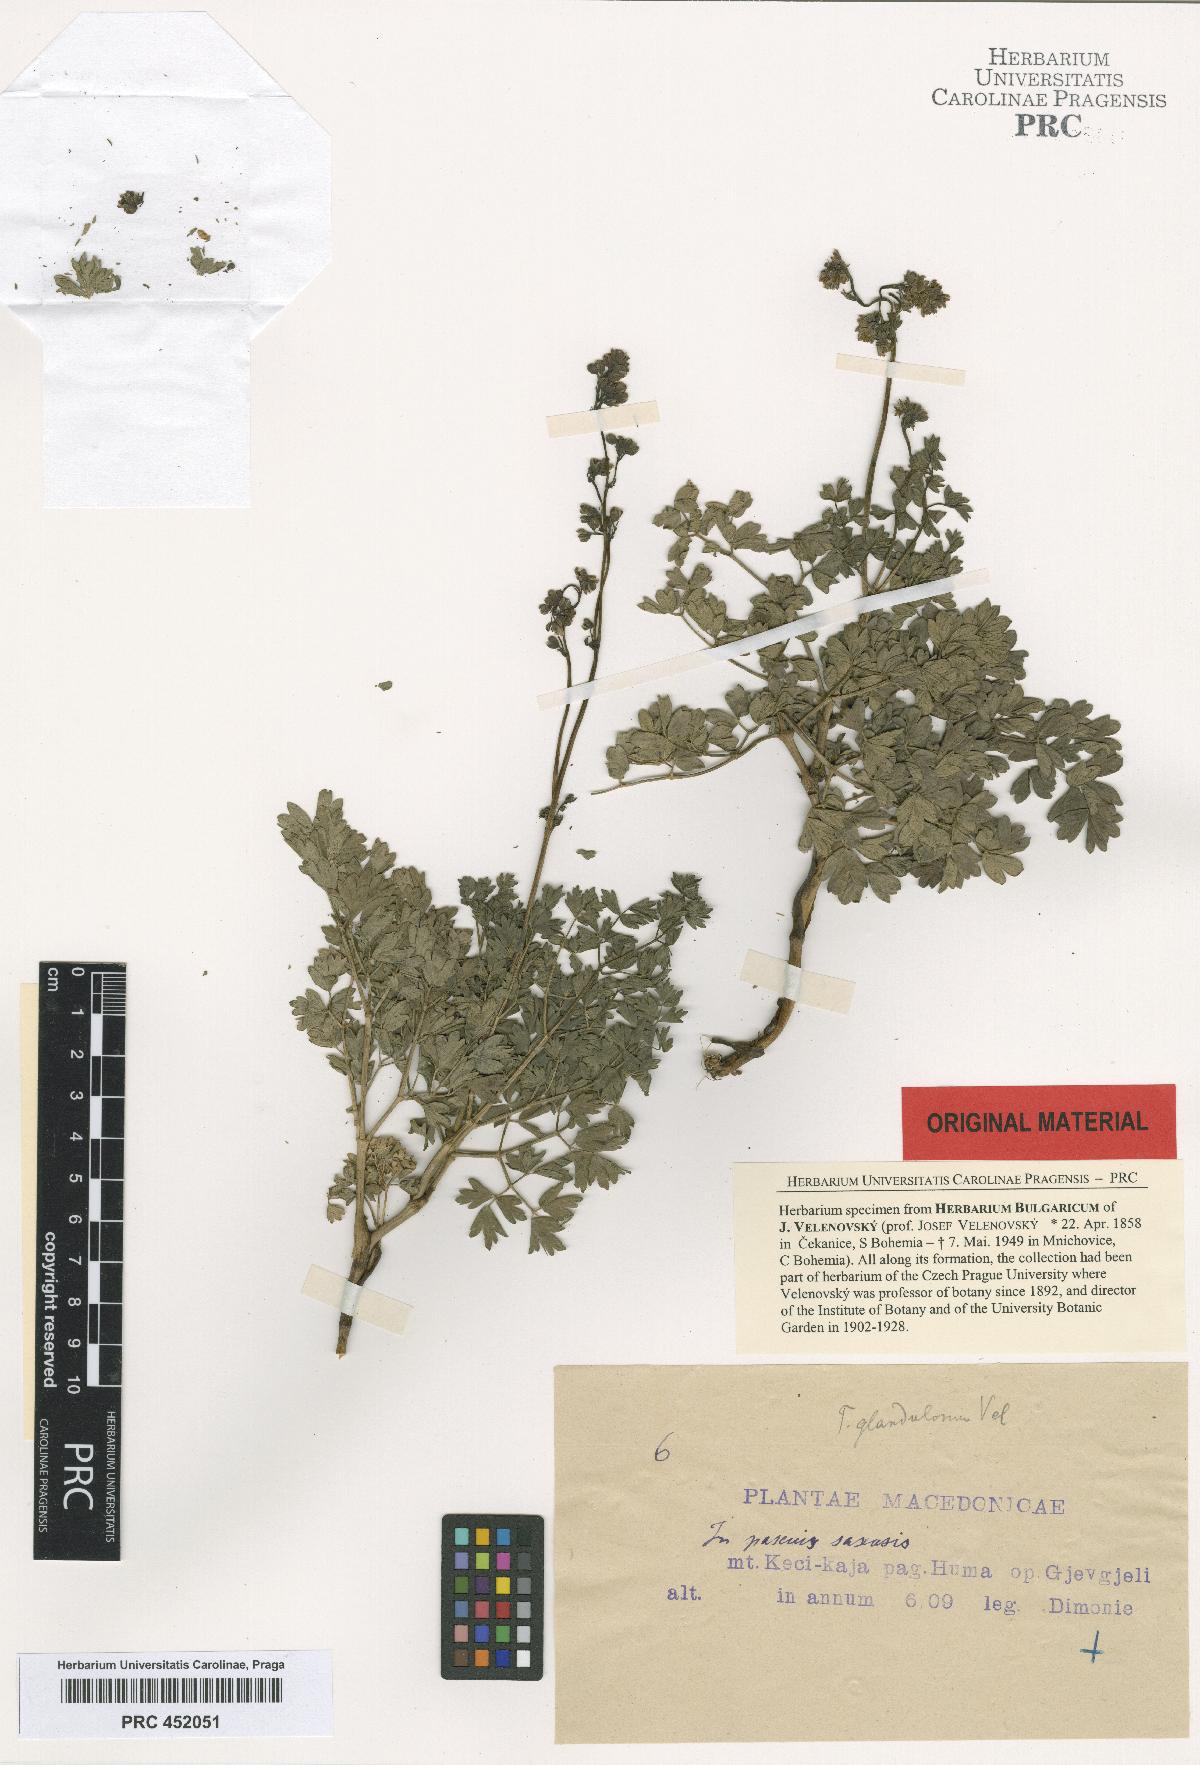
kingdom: Plantae
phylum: Tracheophyta
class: Magnoliopsida
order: Ranunculales
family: Ranunculaceae
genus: Thalictrum
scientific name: Thalictrum glandulosum
